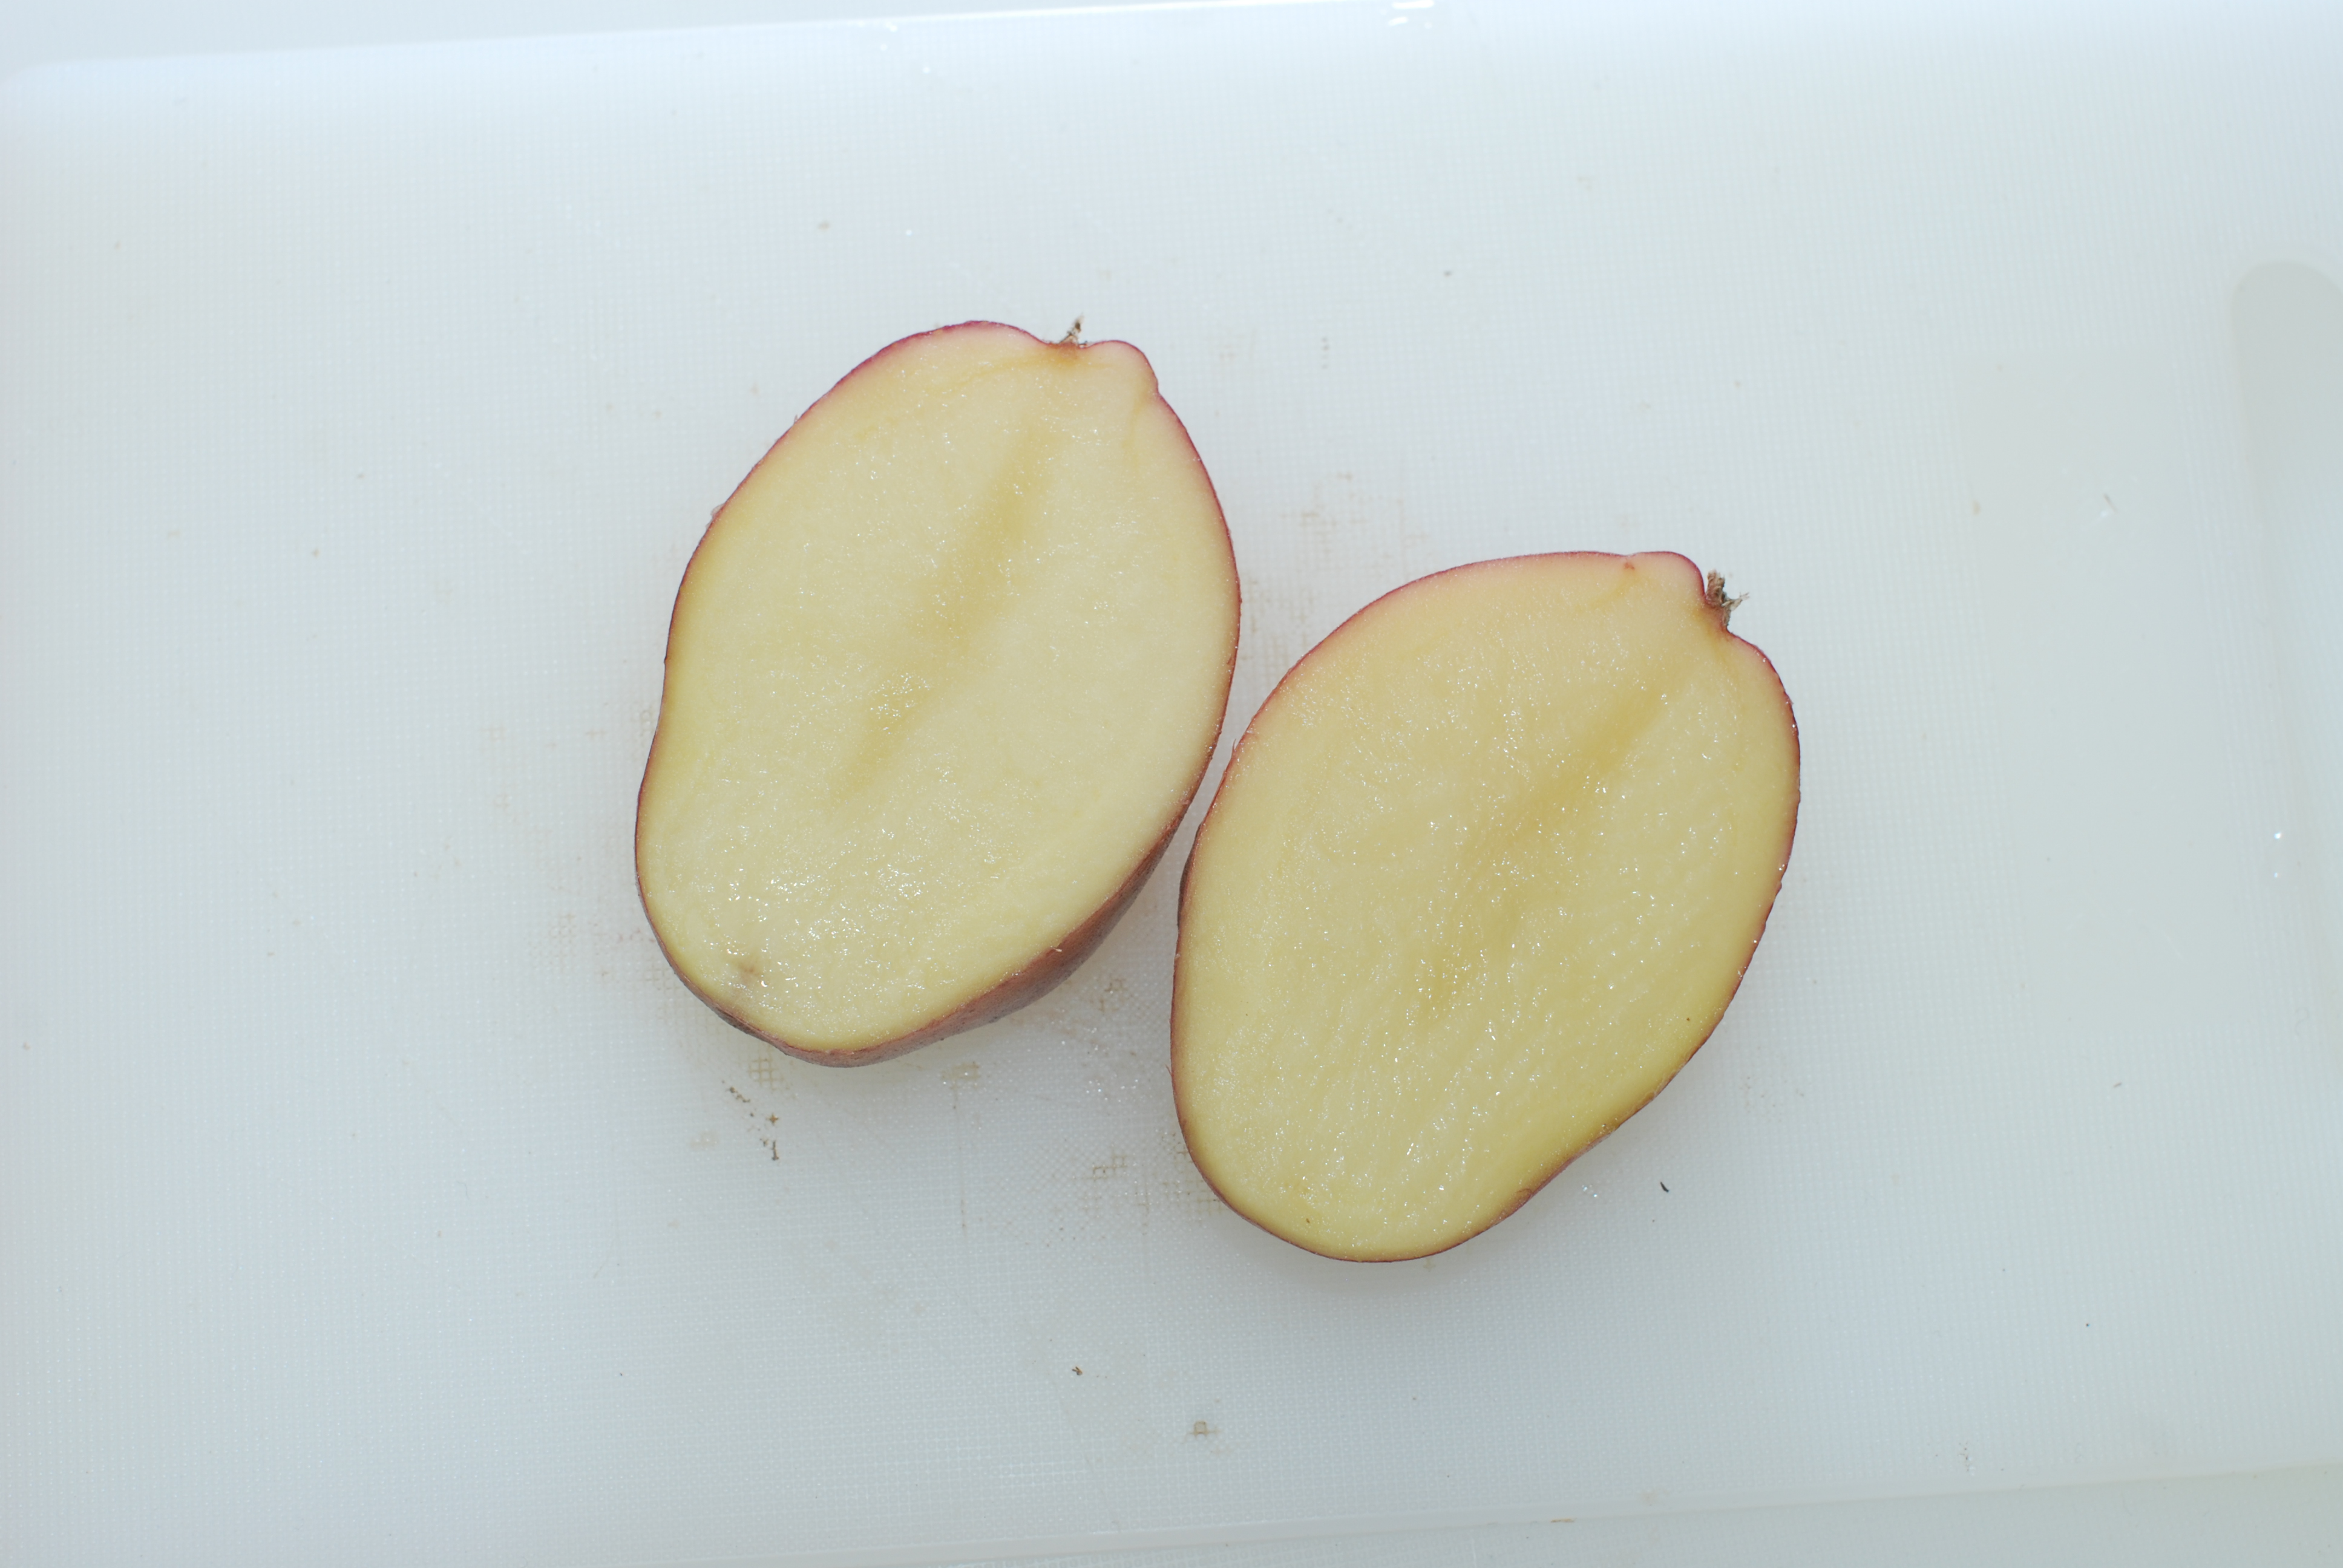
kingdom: Plantae
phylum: Tracheophyta
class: Magnoliopsida
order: Solanales
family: Solanaceae
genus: Solanum
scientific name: Solanum tuberosum
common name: Potato
